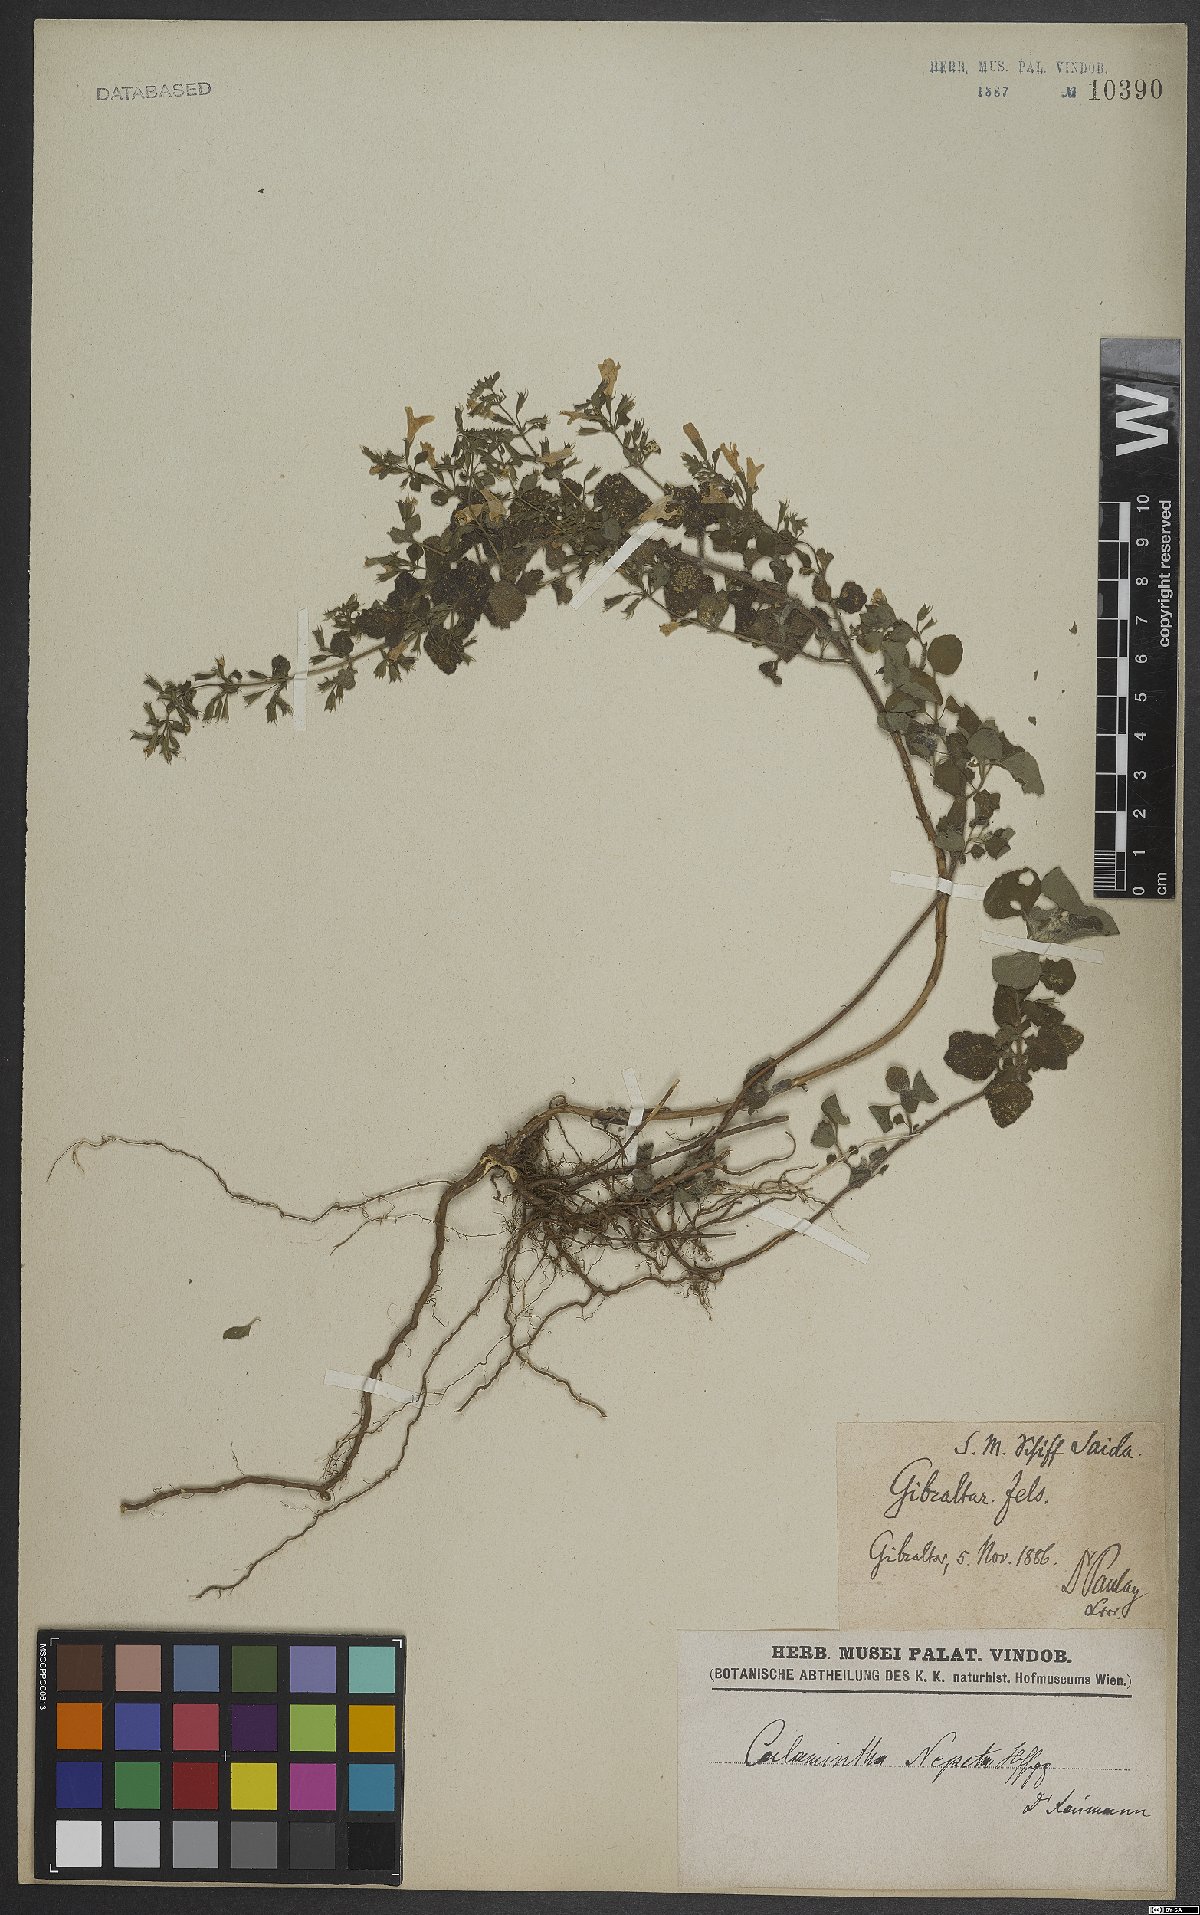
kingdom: Plantae
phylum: Tracheophyta
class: Magnoliopsida
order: Lamiales
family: Lamiaceae
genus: Clinopodium
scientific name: Clinopodium heterotrichum
